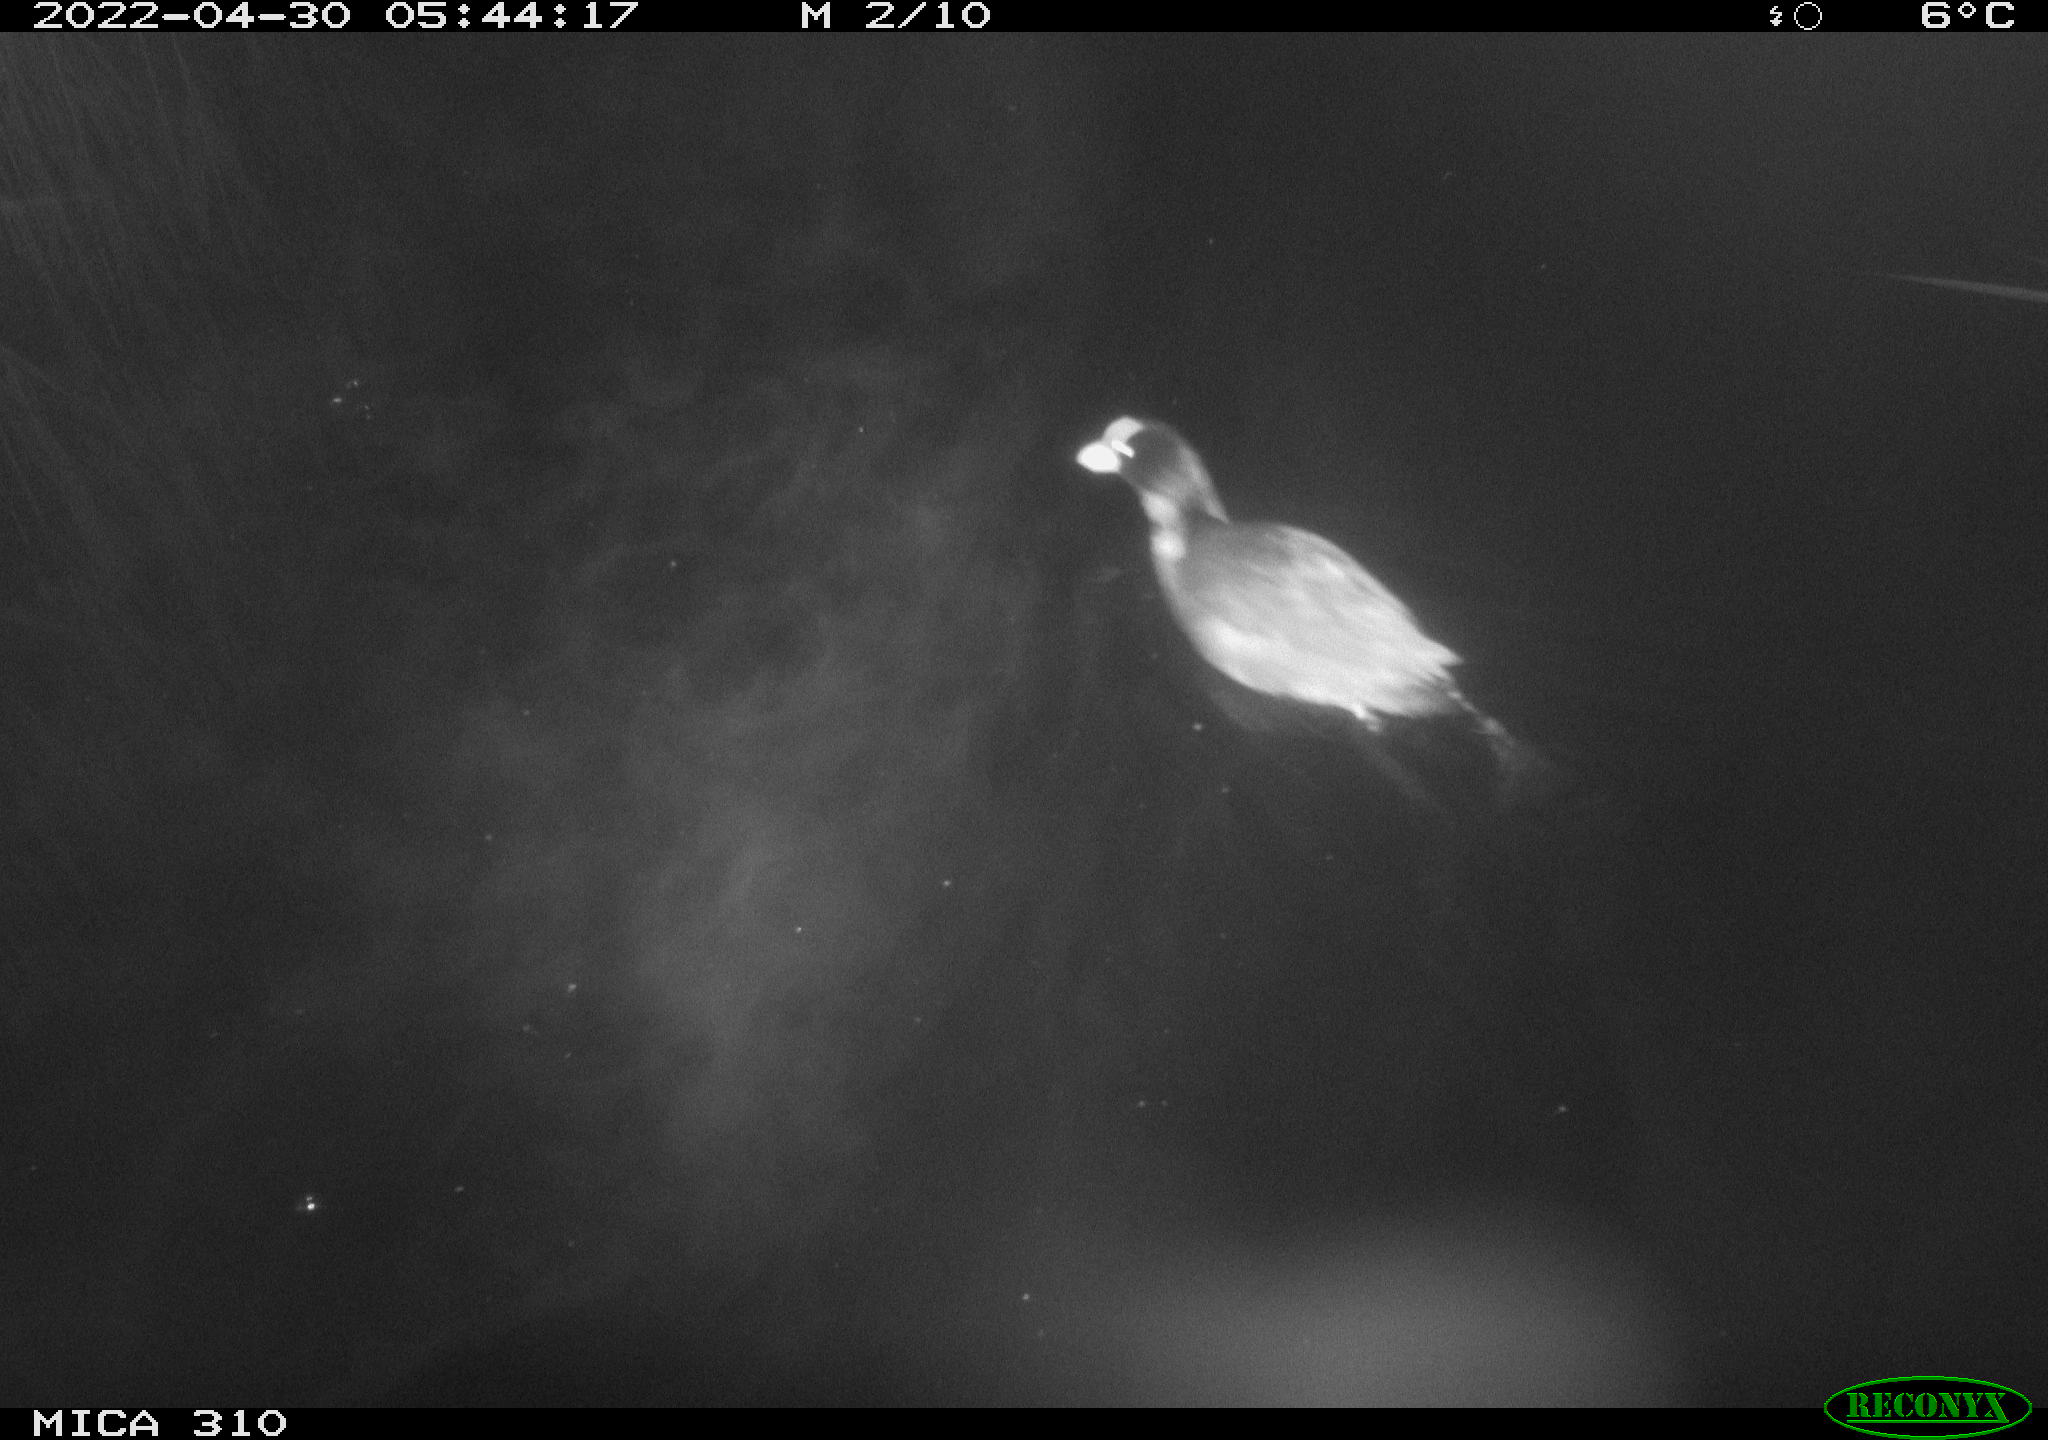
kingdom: Animalia
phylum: Chordata
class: Aves
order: Gruiformes
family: Rallidae
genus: Fulica
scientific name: Fulica atra
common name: Eurasian coot
